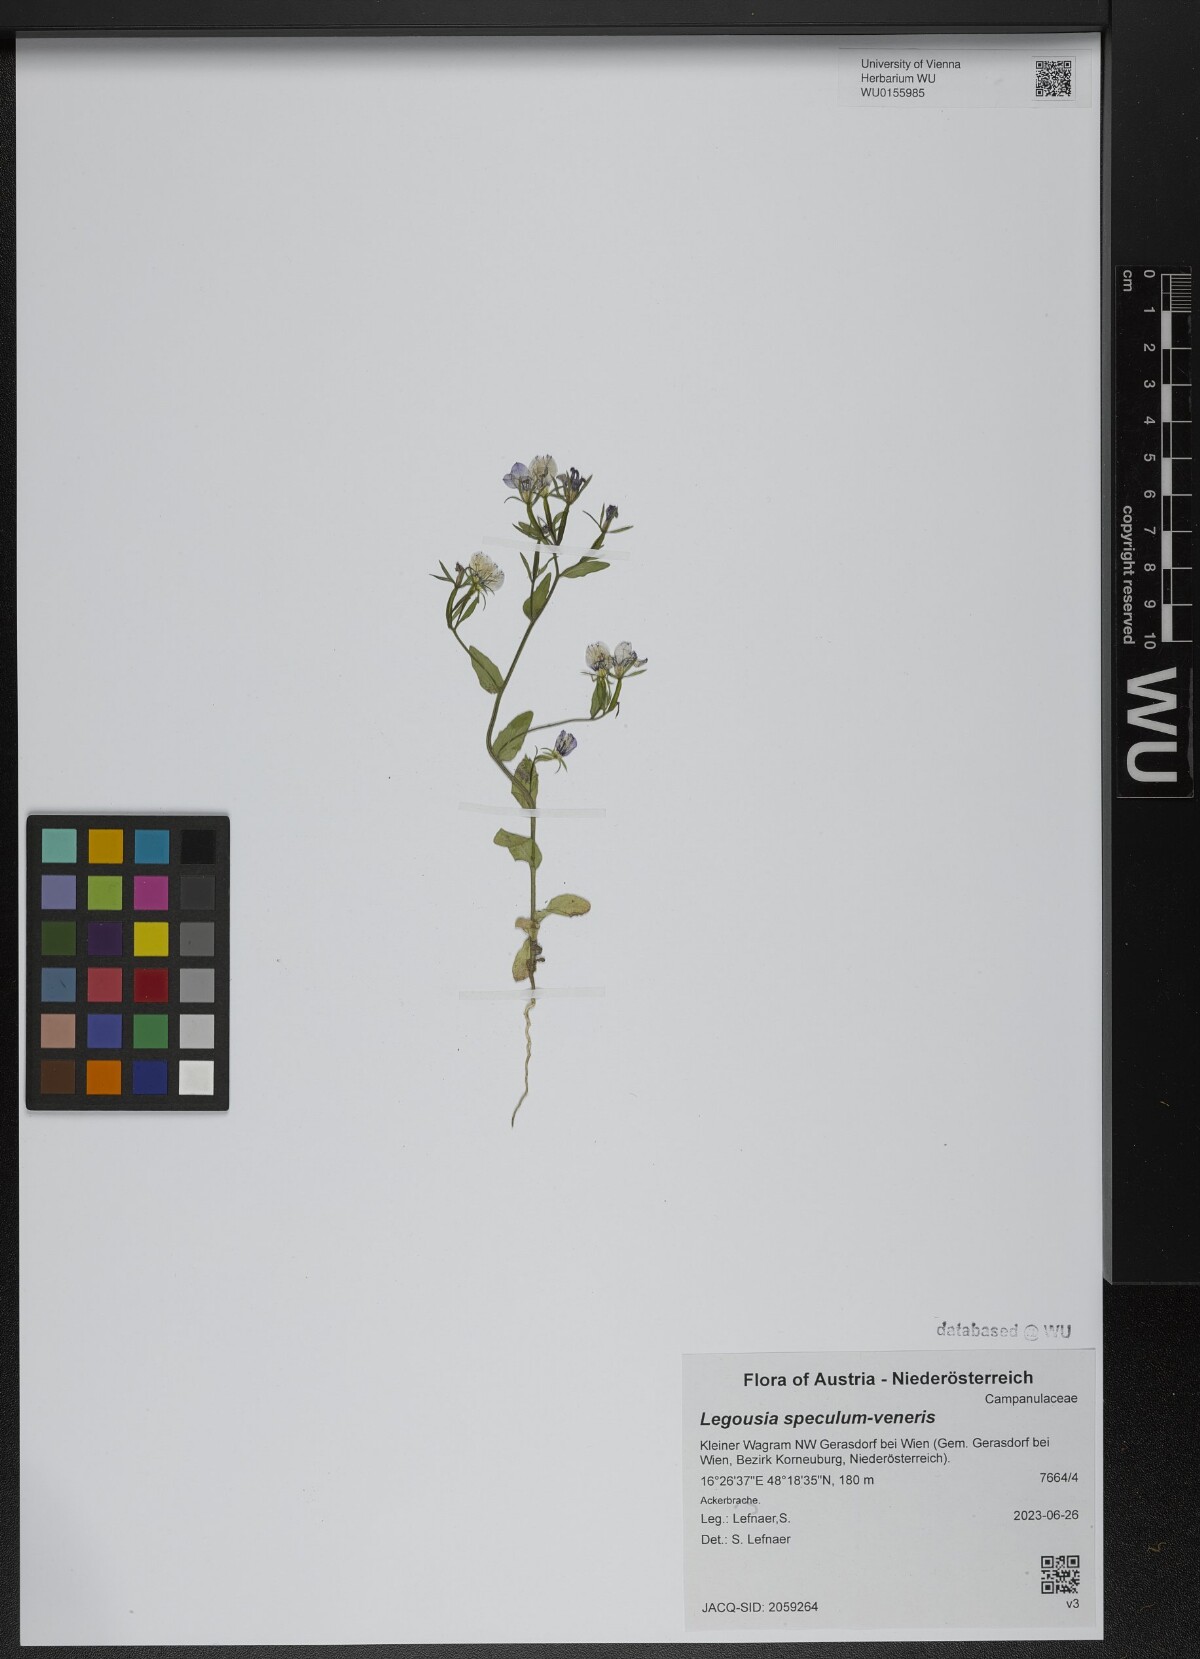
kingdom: Plantae
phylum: Tracheophyta
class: Magnoliopsida
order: Asterales
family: Campanulaceae
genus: Legousia
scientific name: Legousia speculum-veneris
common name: Large venus's-looking-glass
